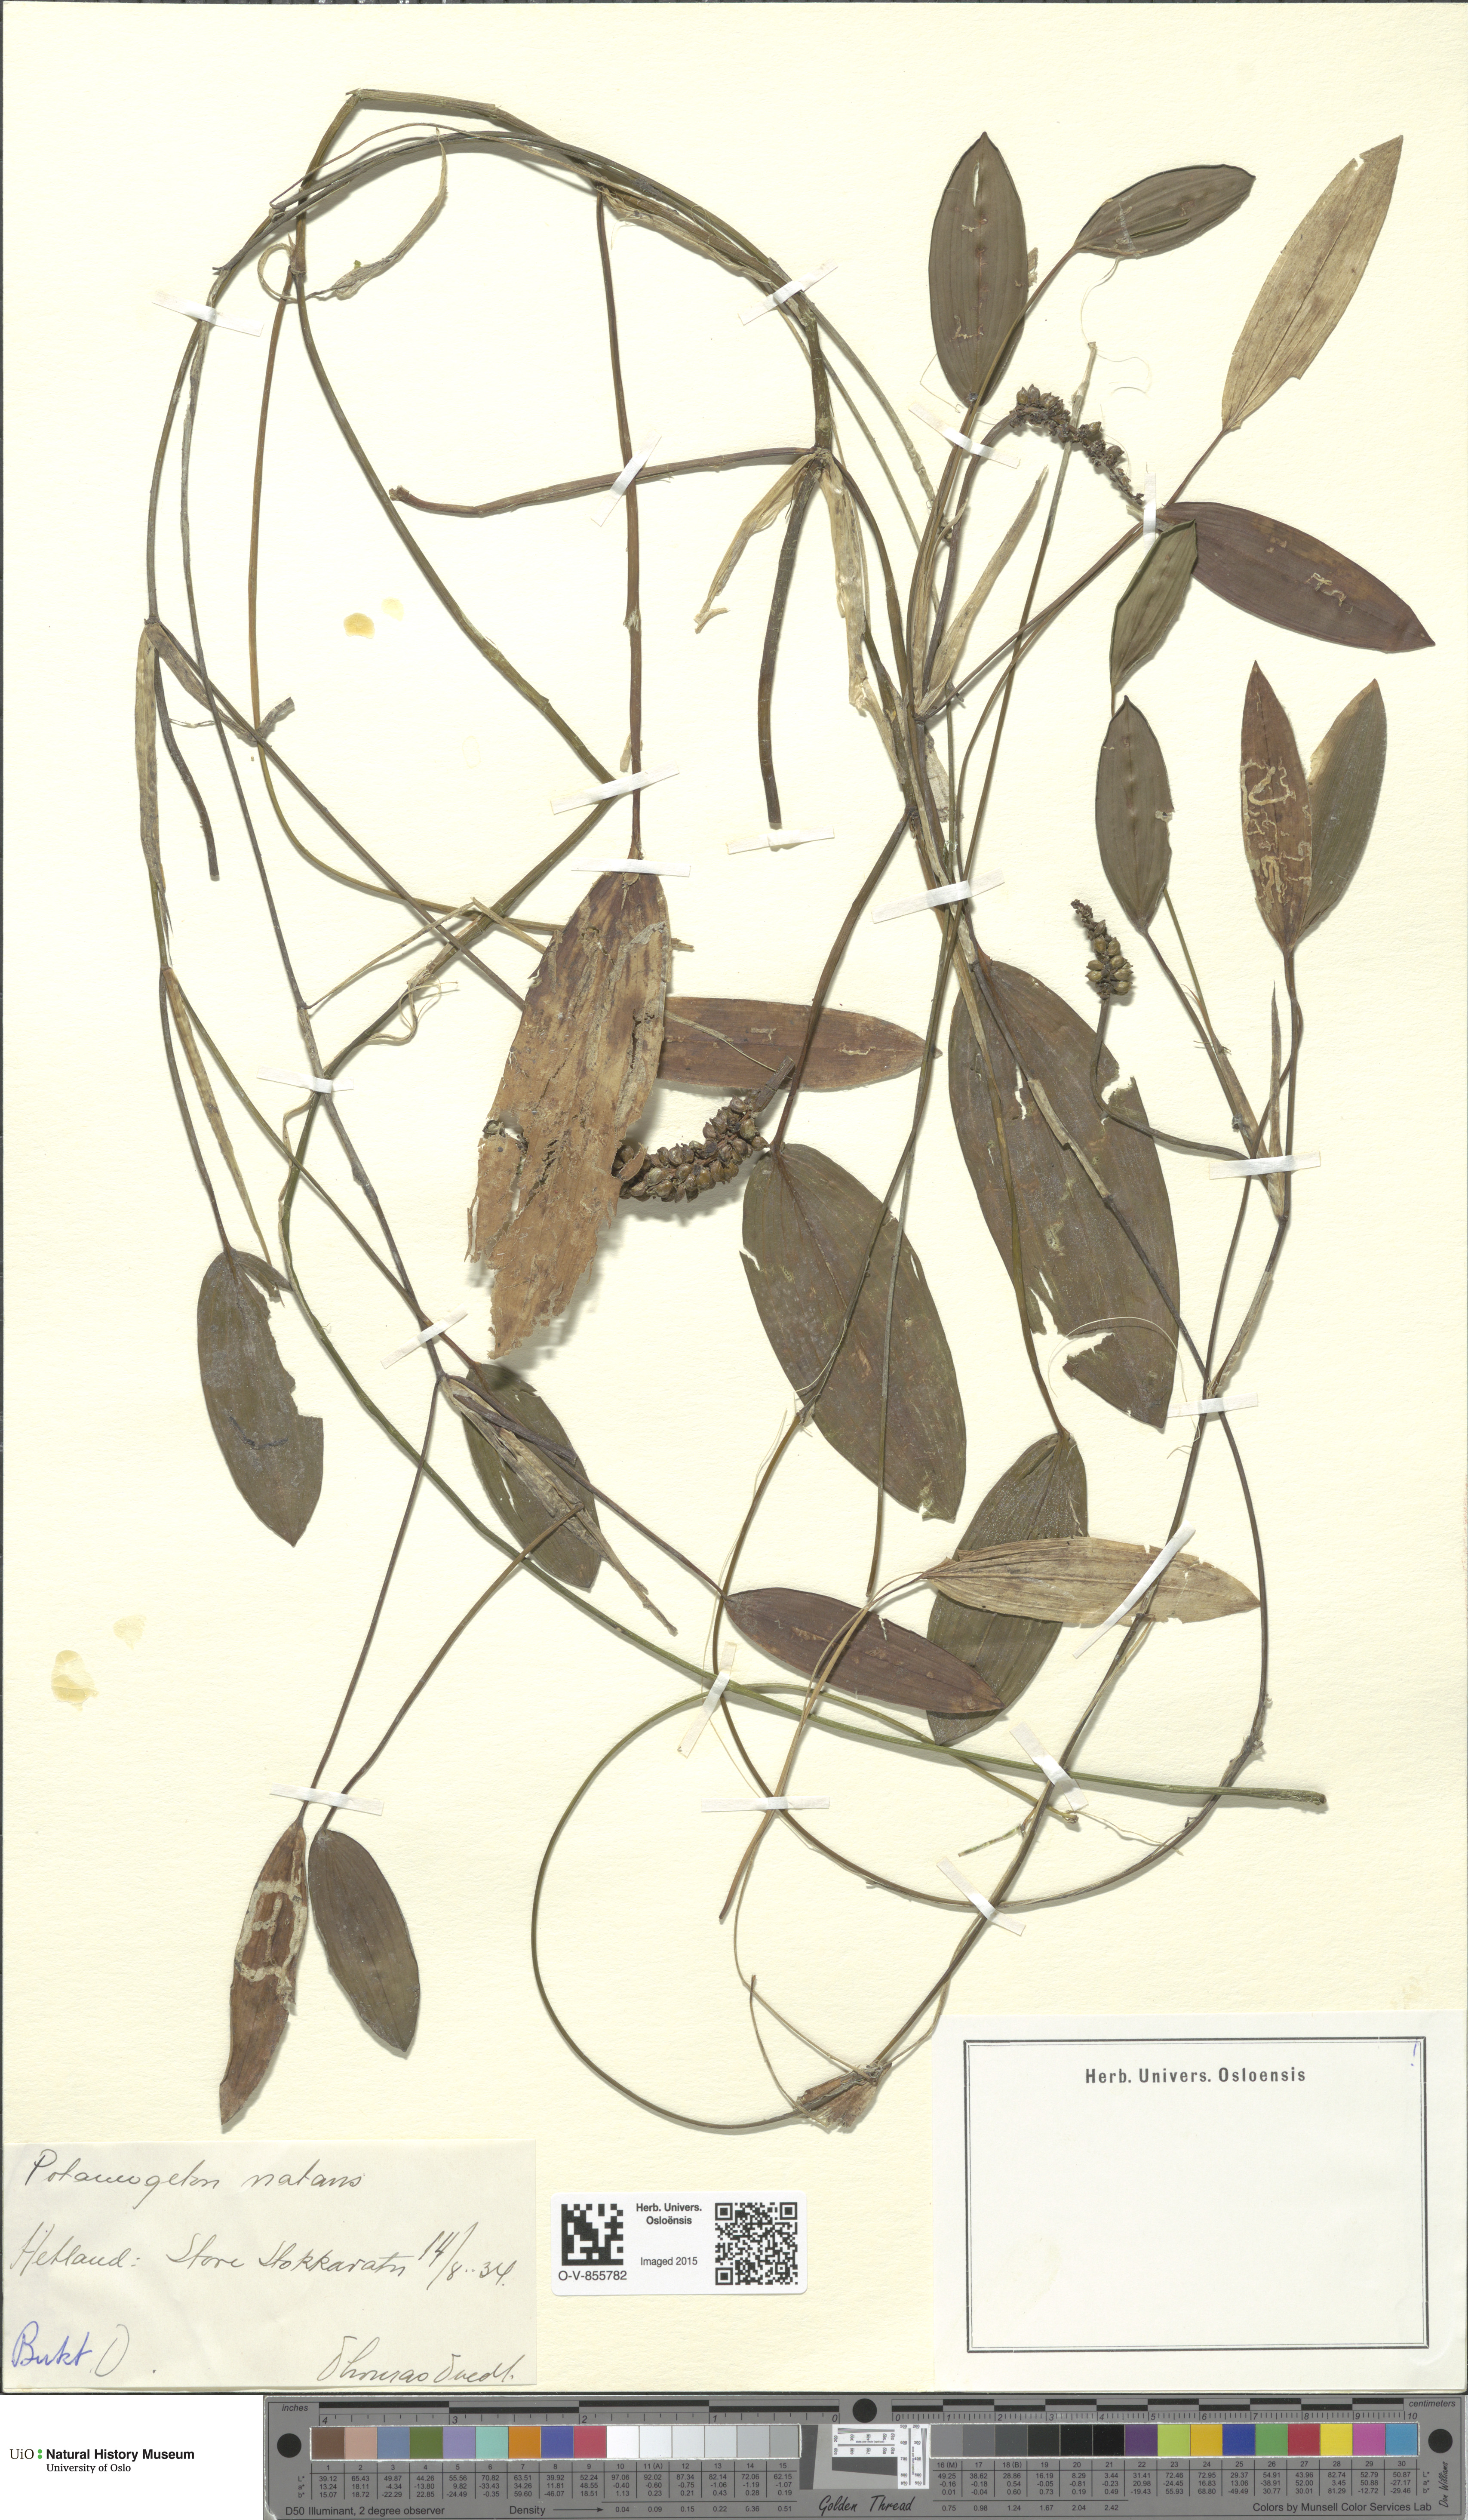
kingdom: Plantae
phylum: Tracheophyta
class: Liliopsida
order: Alismatales
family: Potamogetonaceae
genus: Potamogeton
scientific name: Potamogeton natans
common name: Broad-leaved pondweed
